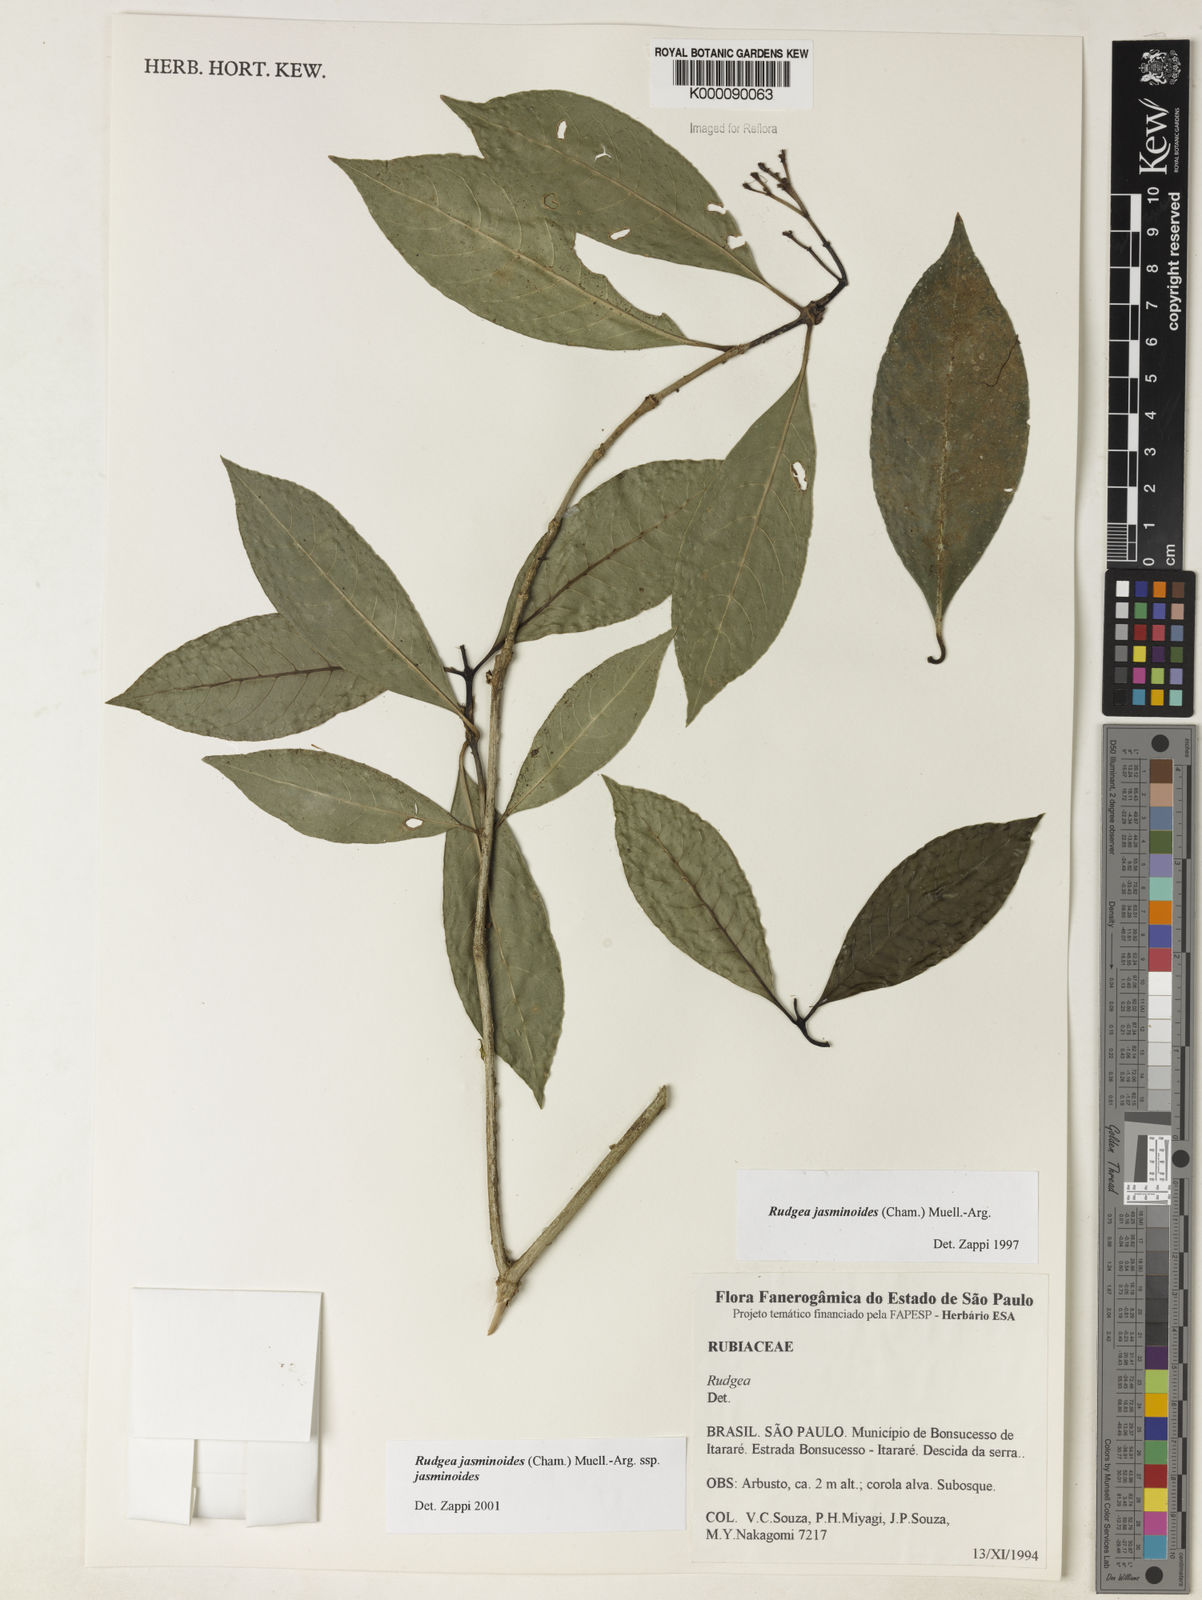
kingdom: Plantae
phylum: Tracheophyta
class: Magnoliopsida
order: Gentianales
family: Rubiaceae
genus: Rudgea
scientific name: Rudgea jasminoides
